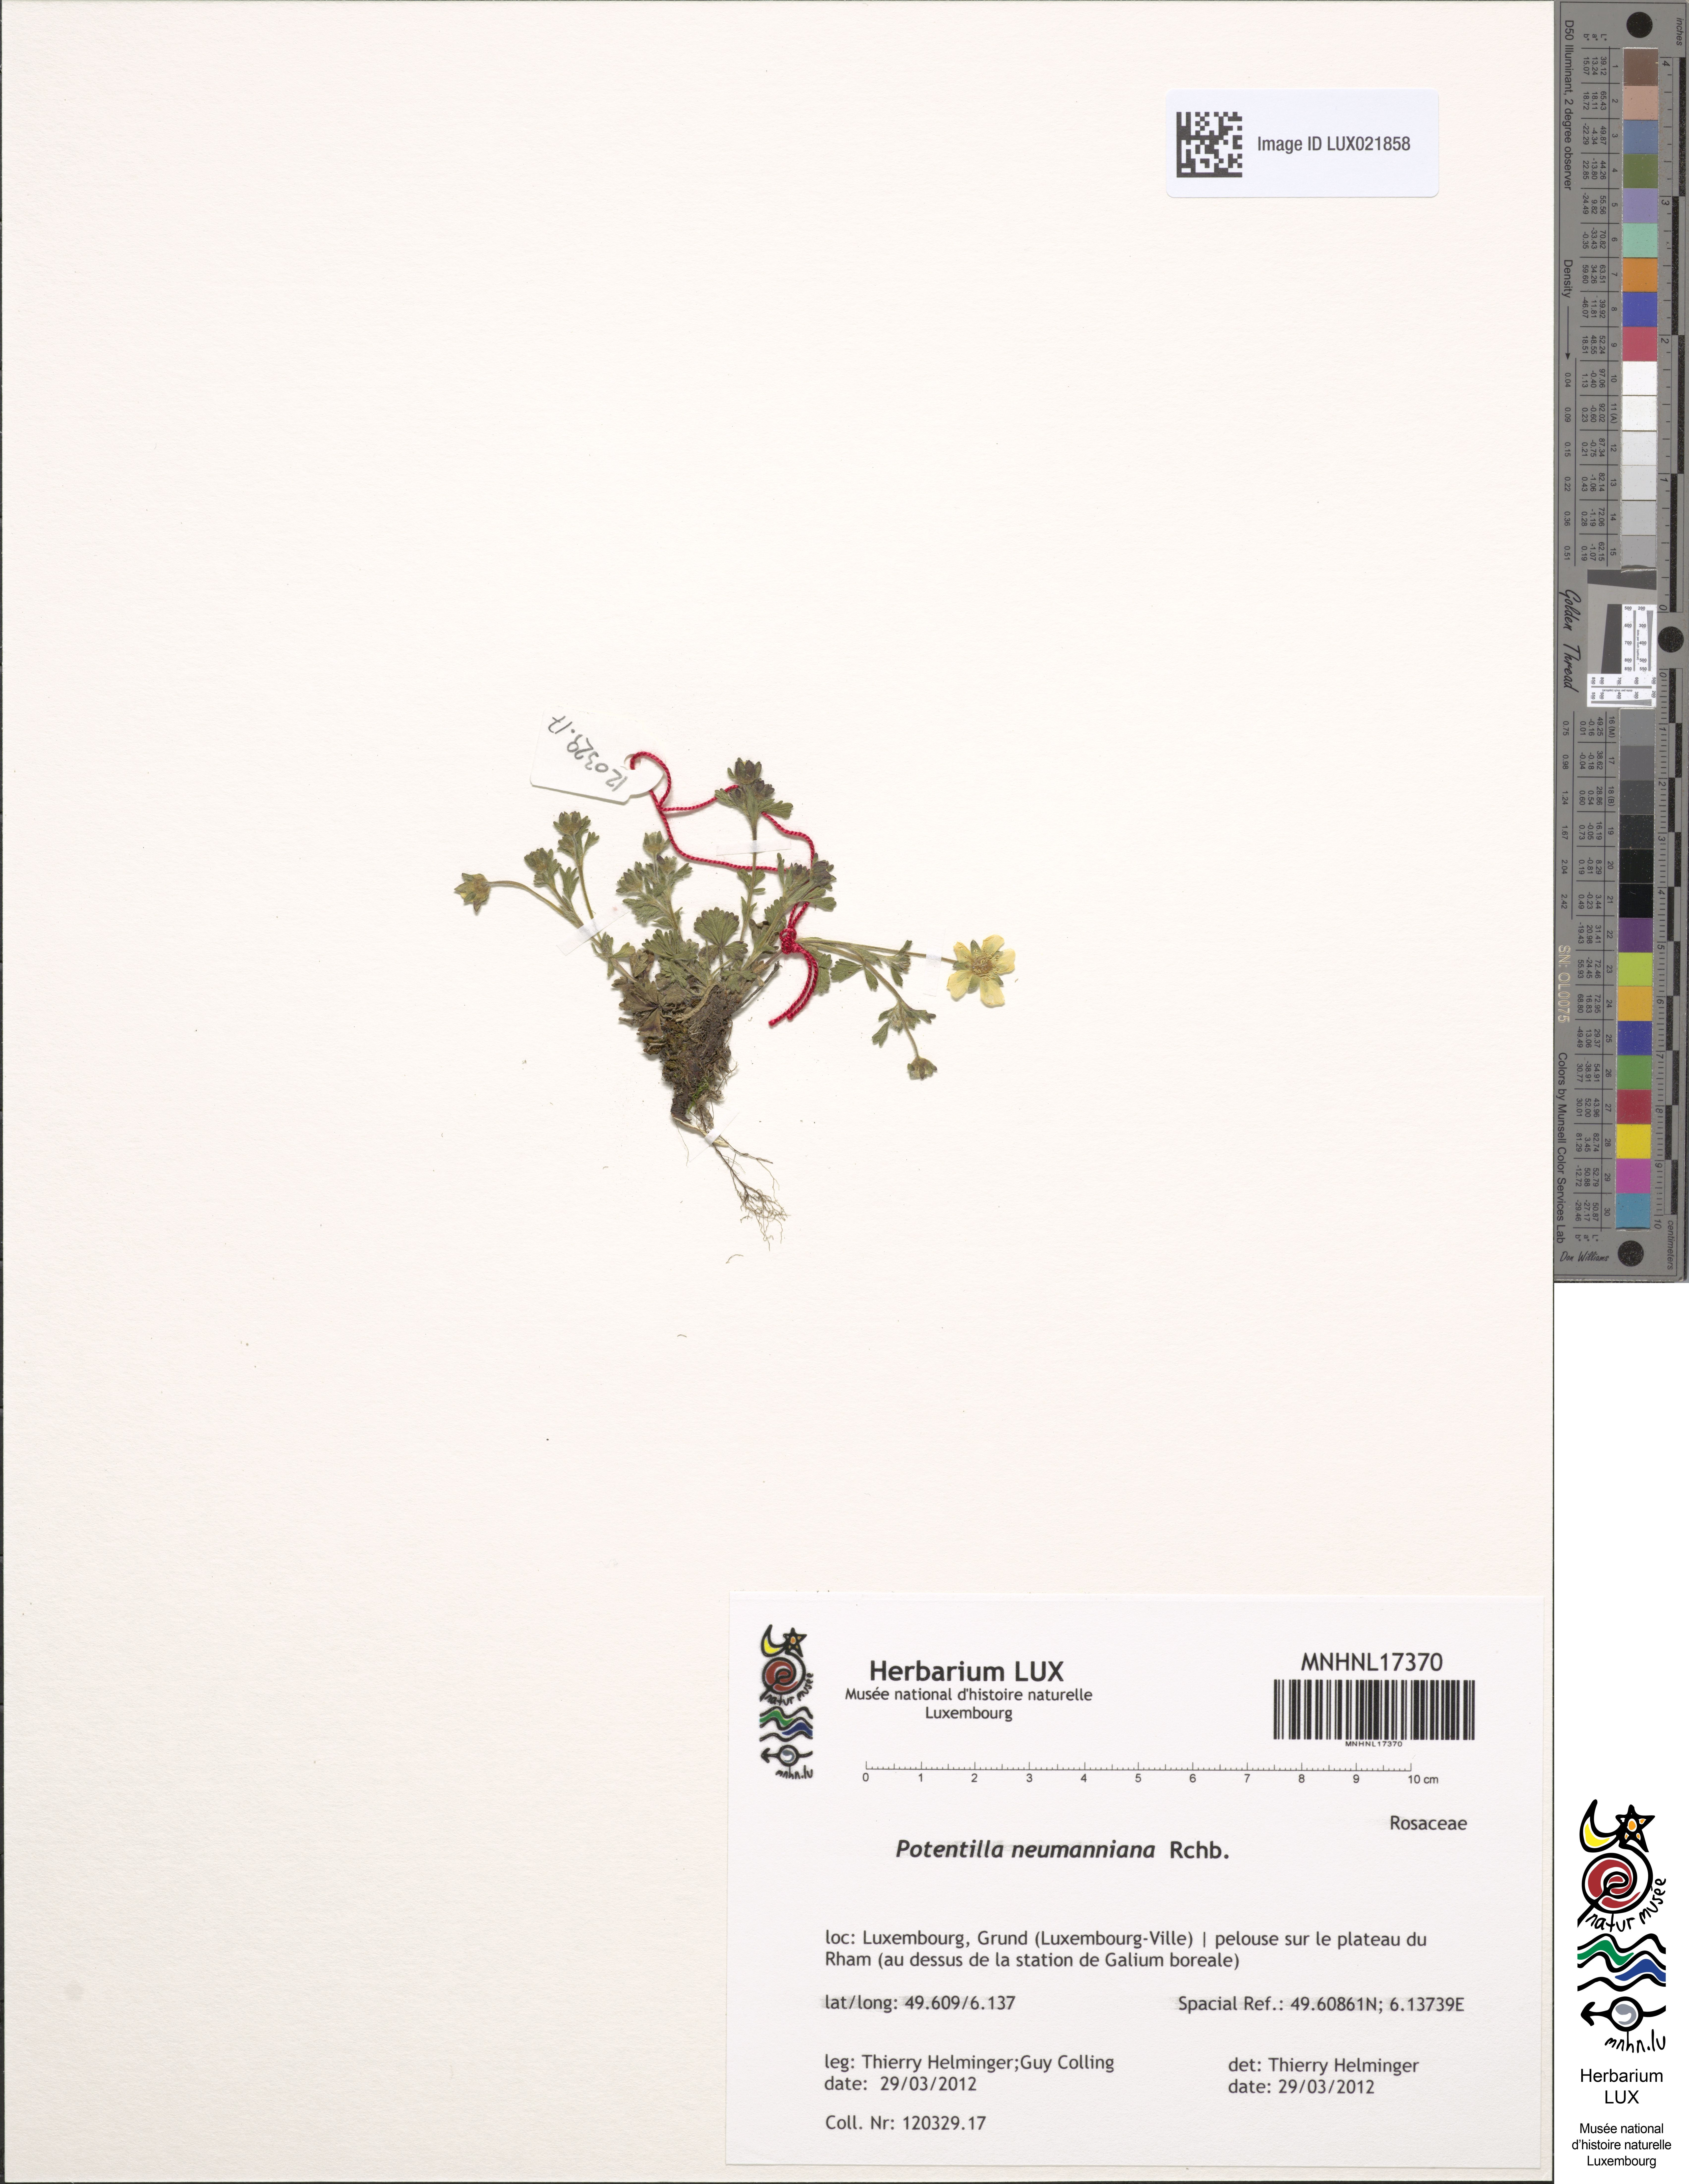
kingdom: Plantae
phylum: Tracheophyta
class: Magnoliopsida
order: Rosales
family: Rosaceae
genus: Potentilla
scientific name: Potentilla verna
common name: Spring cinquefoil
